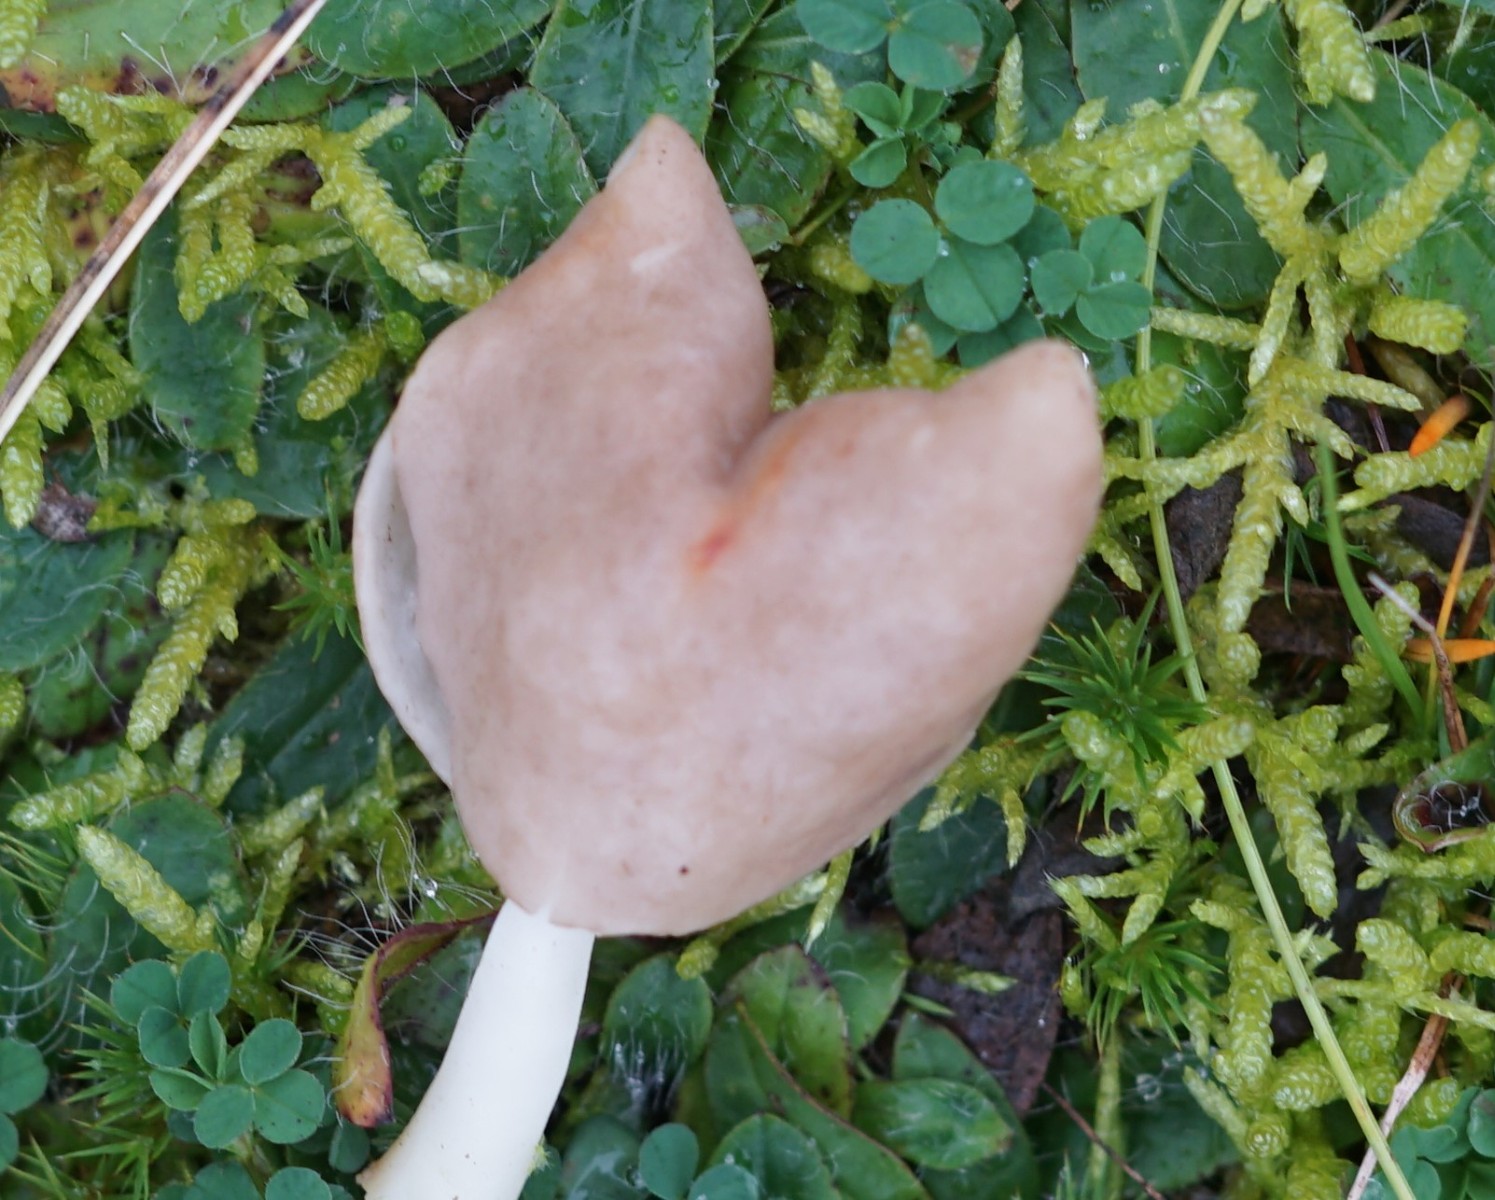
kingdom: Fungi
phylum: Ascomycota
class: Pezizomycetes
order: Pezizales
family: Helvellaceae
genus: Helvella
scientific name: Helvella elastica
